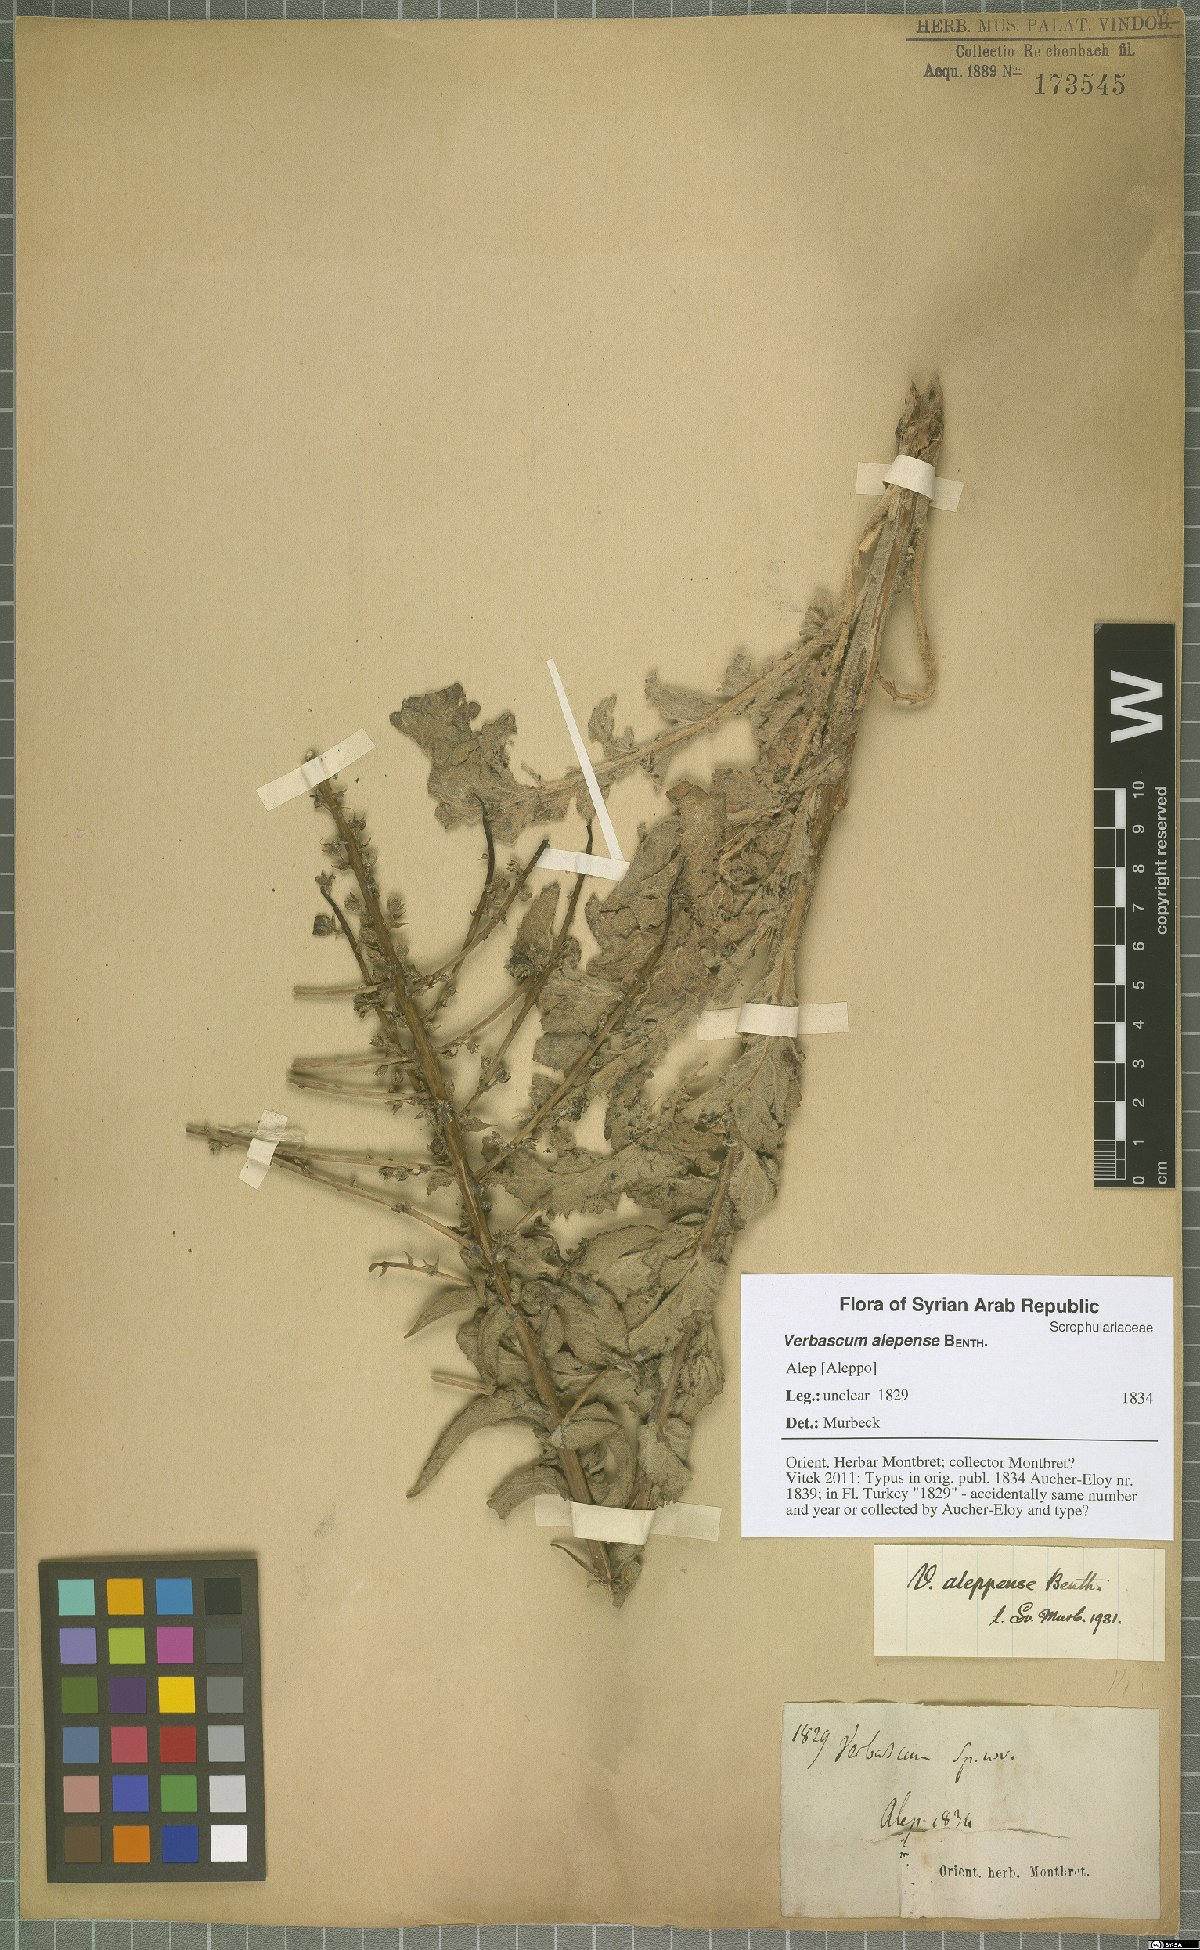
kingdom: Plantae
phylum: Tracheophyta
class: Magnoliopsida
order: Lamiales
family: Scrophulariaceae
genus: Verbascum
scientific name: Verbascum alepense
